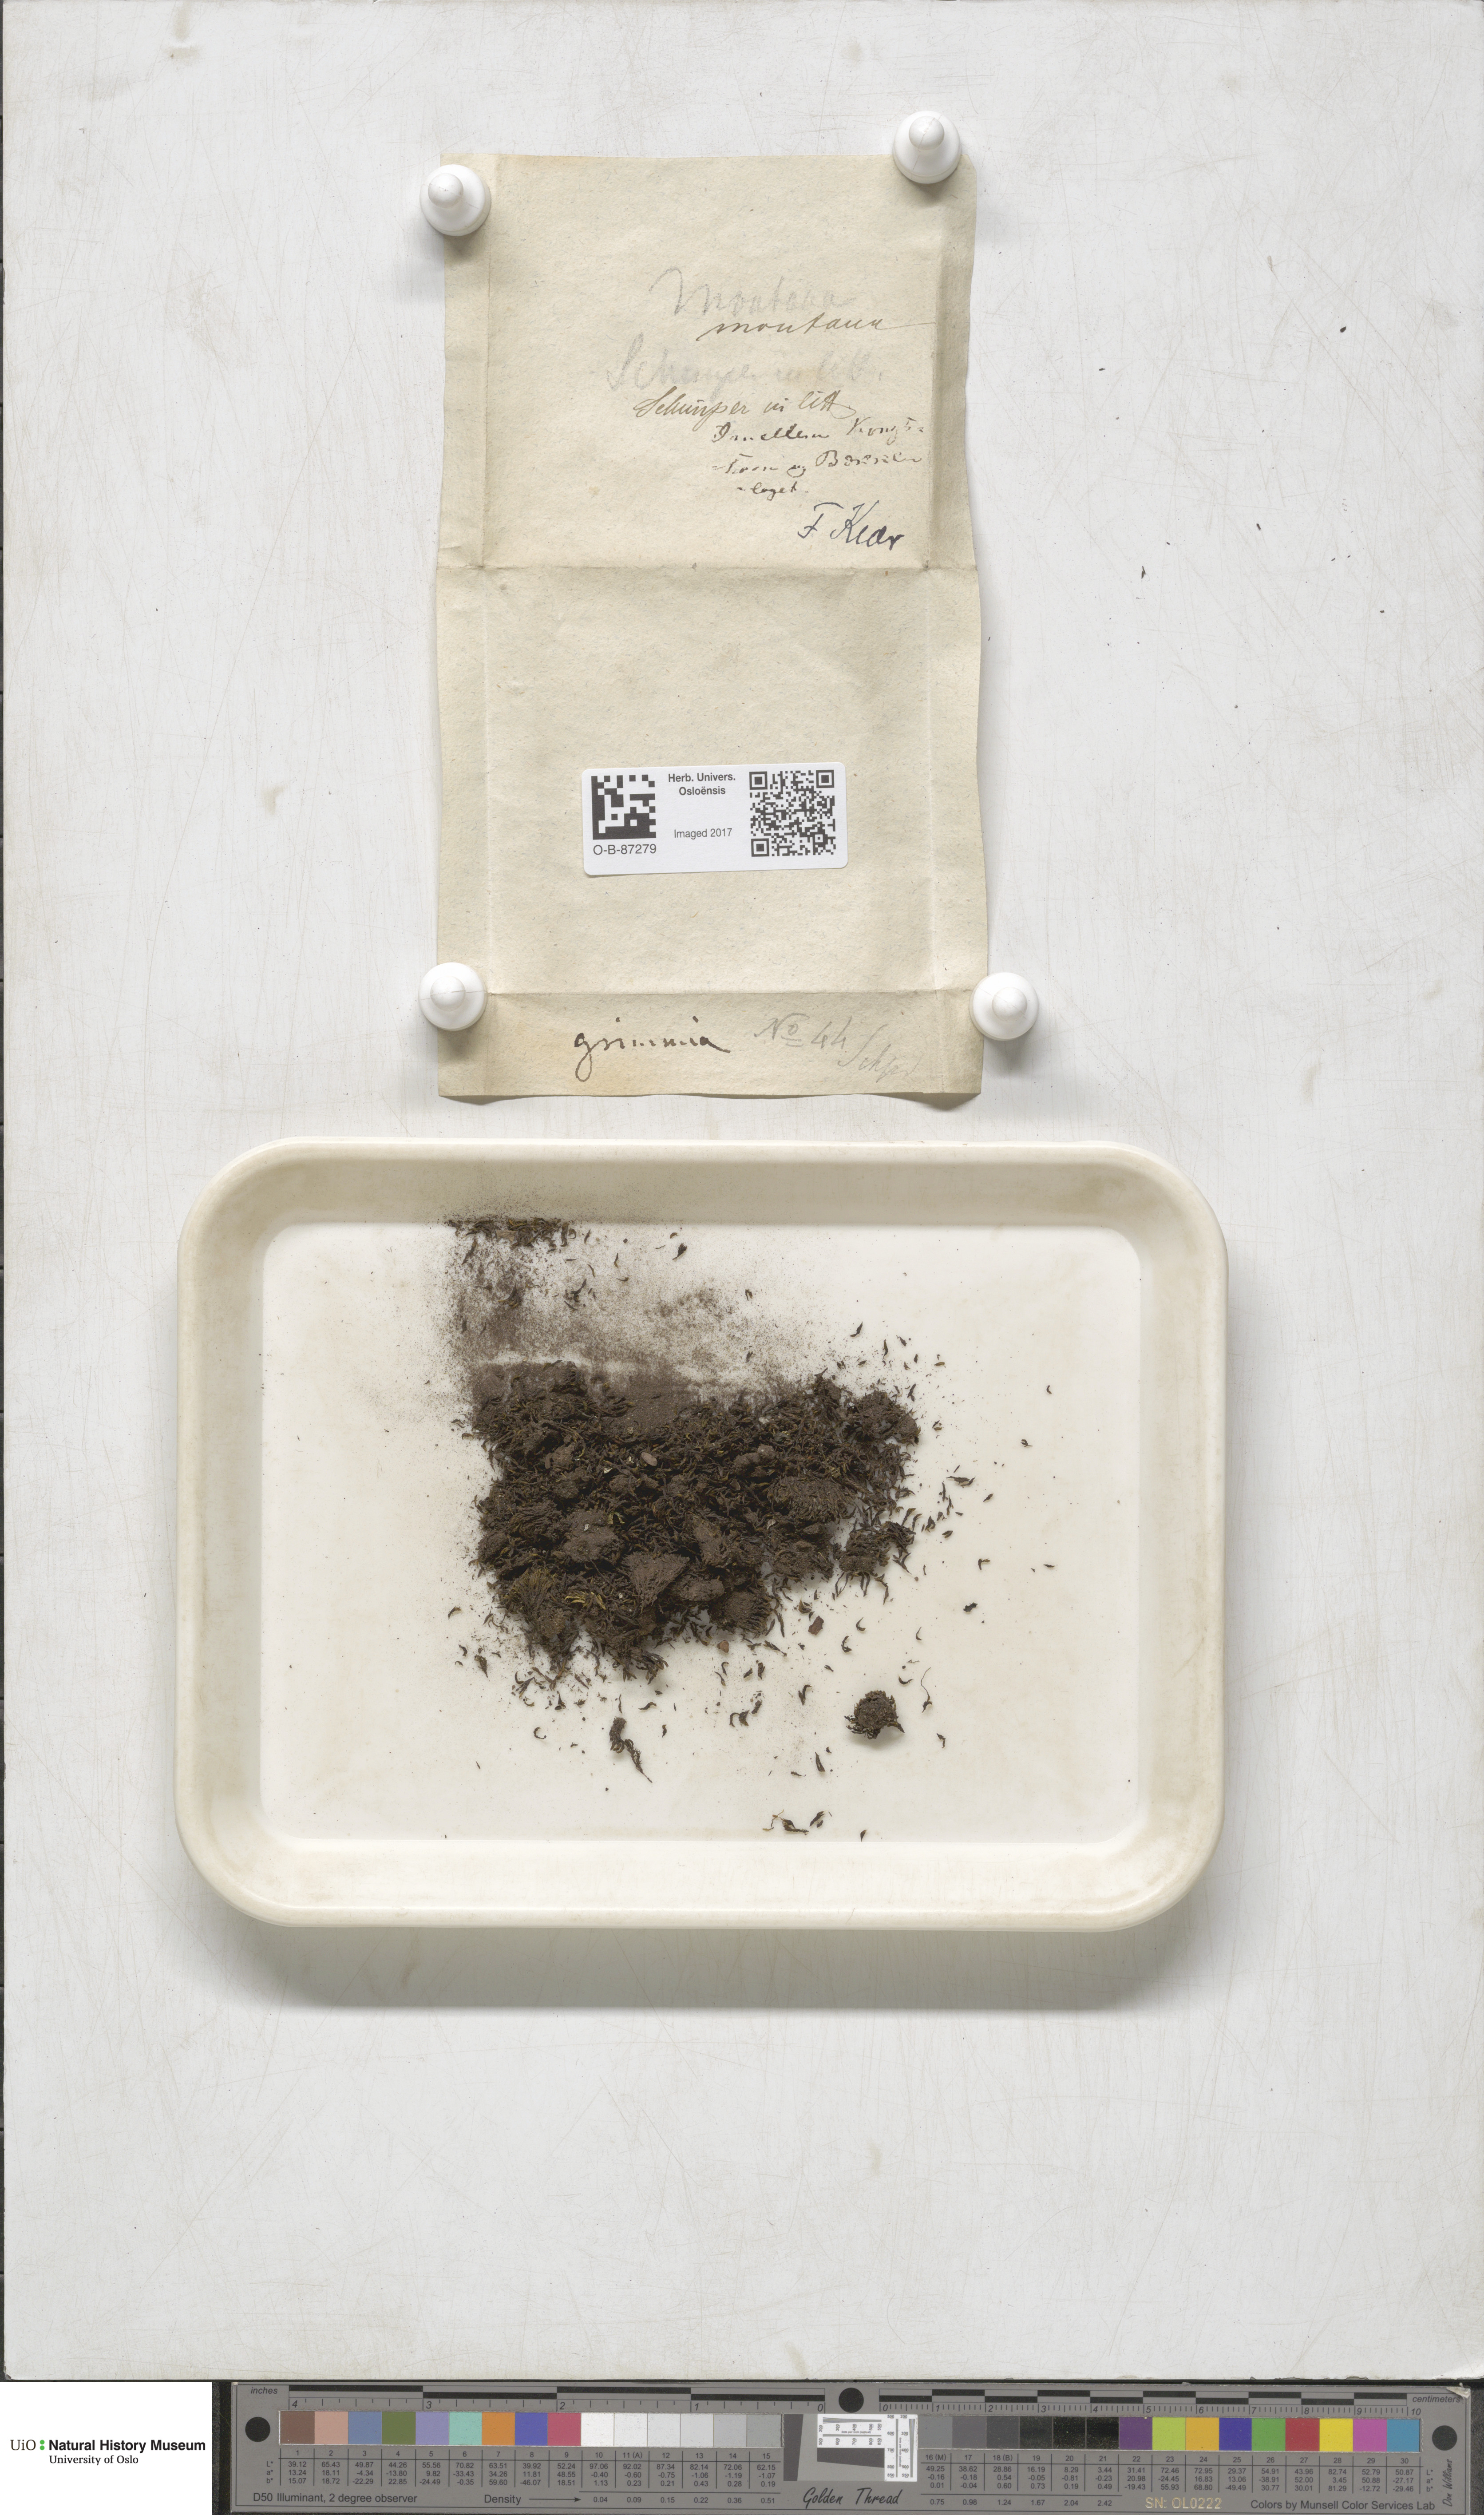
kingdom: Plantae
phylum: Bryophyta
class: Bryopsida
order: Grimmiales
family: Grimmiaceae
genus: Grimmia
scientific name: Grimmia montana
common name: Sun grimmia
